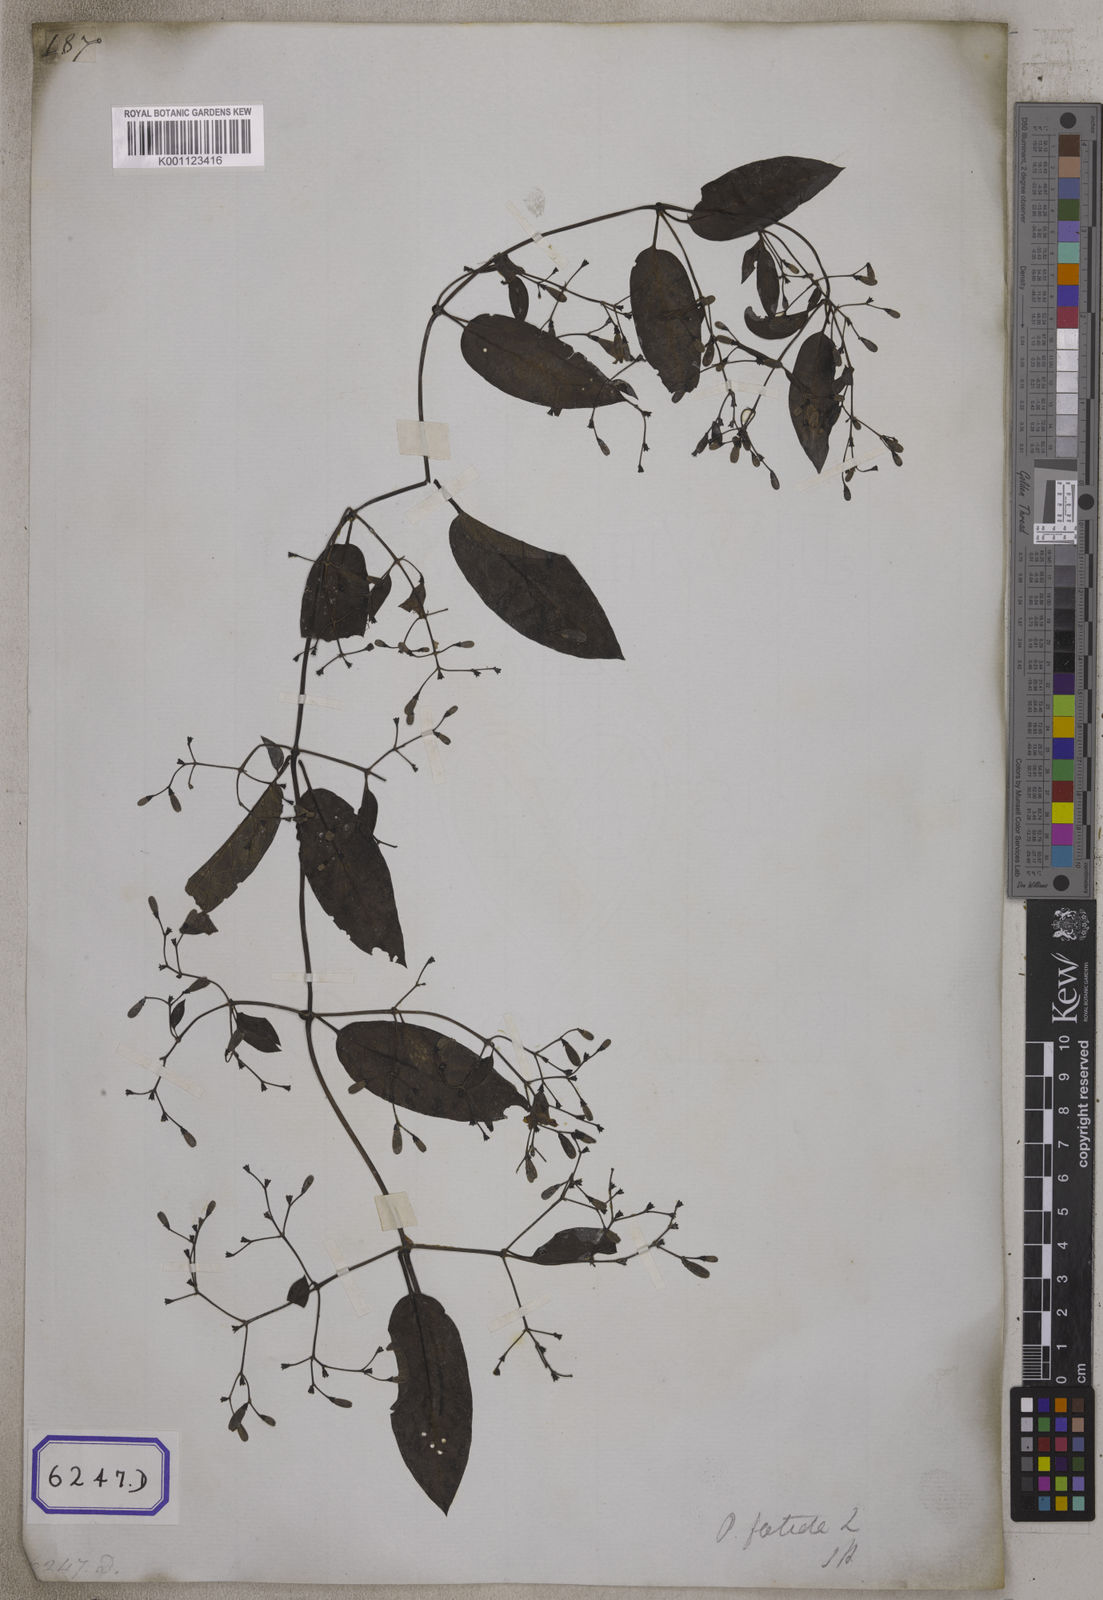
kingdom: Plantae
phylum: Tracheophyta
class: Magnoliopsida
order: Gentianales
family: Rubiaceae
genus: Paederia
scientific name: Paederia
